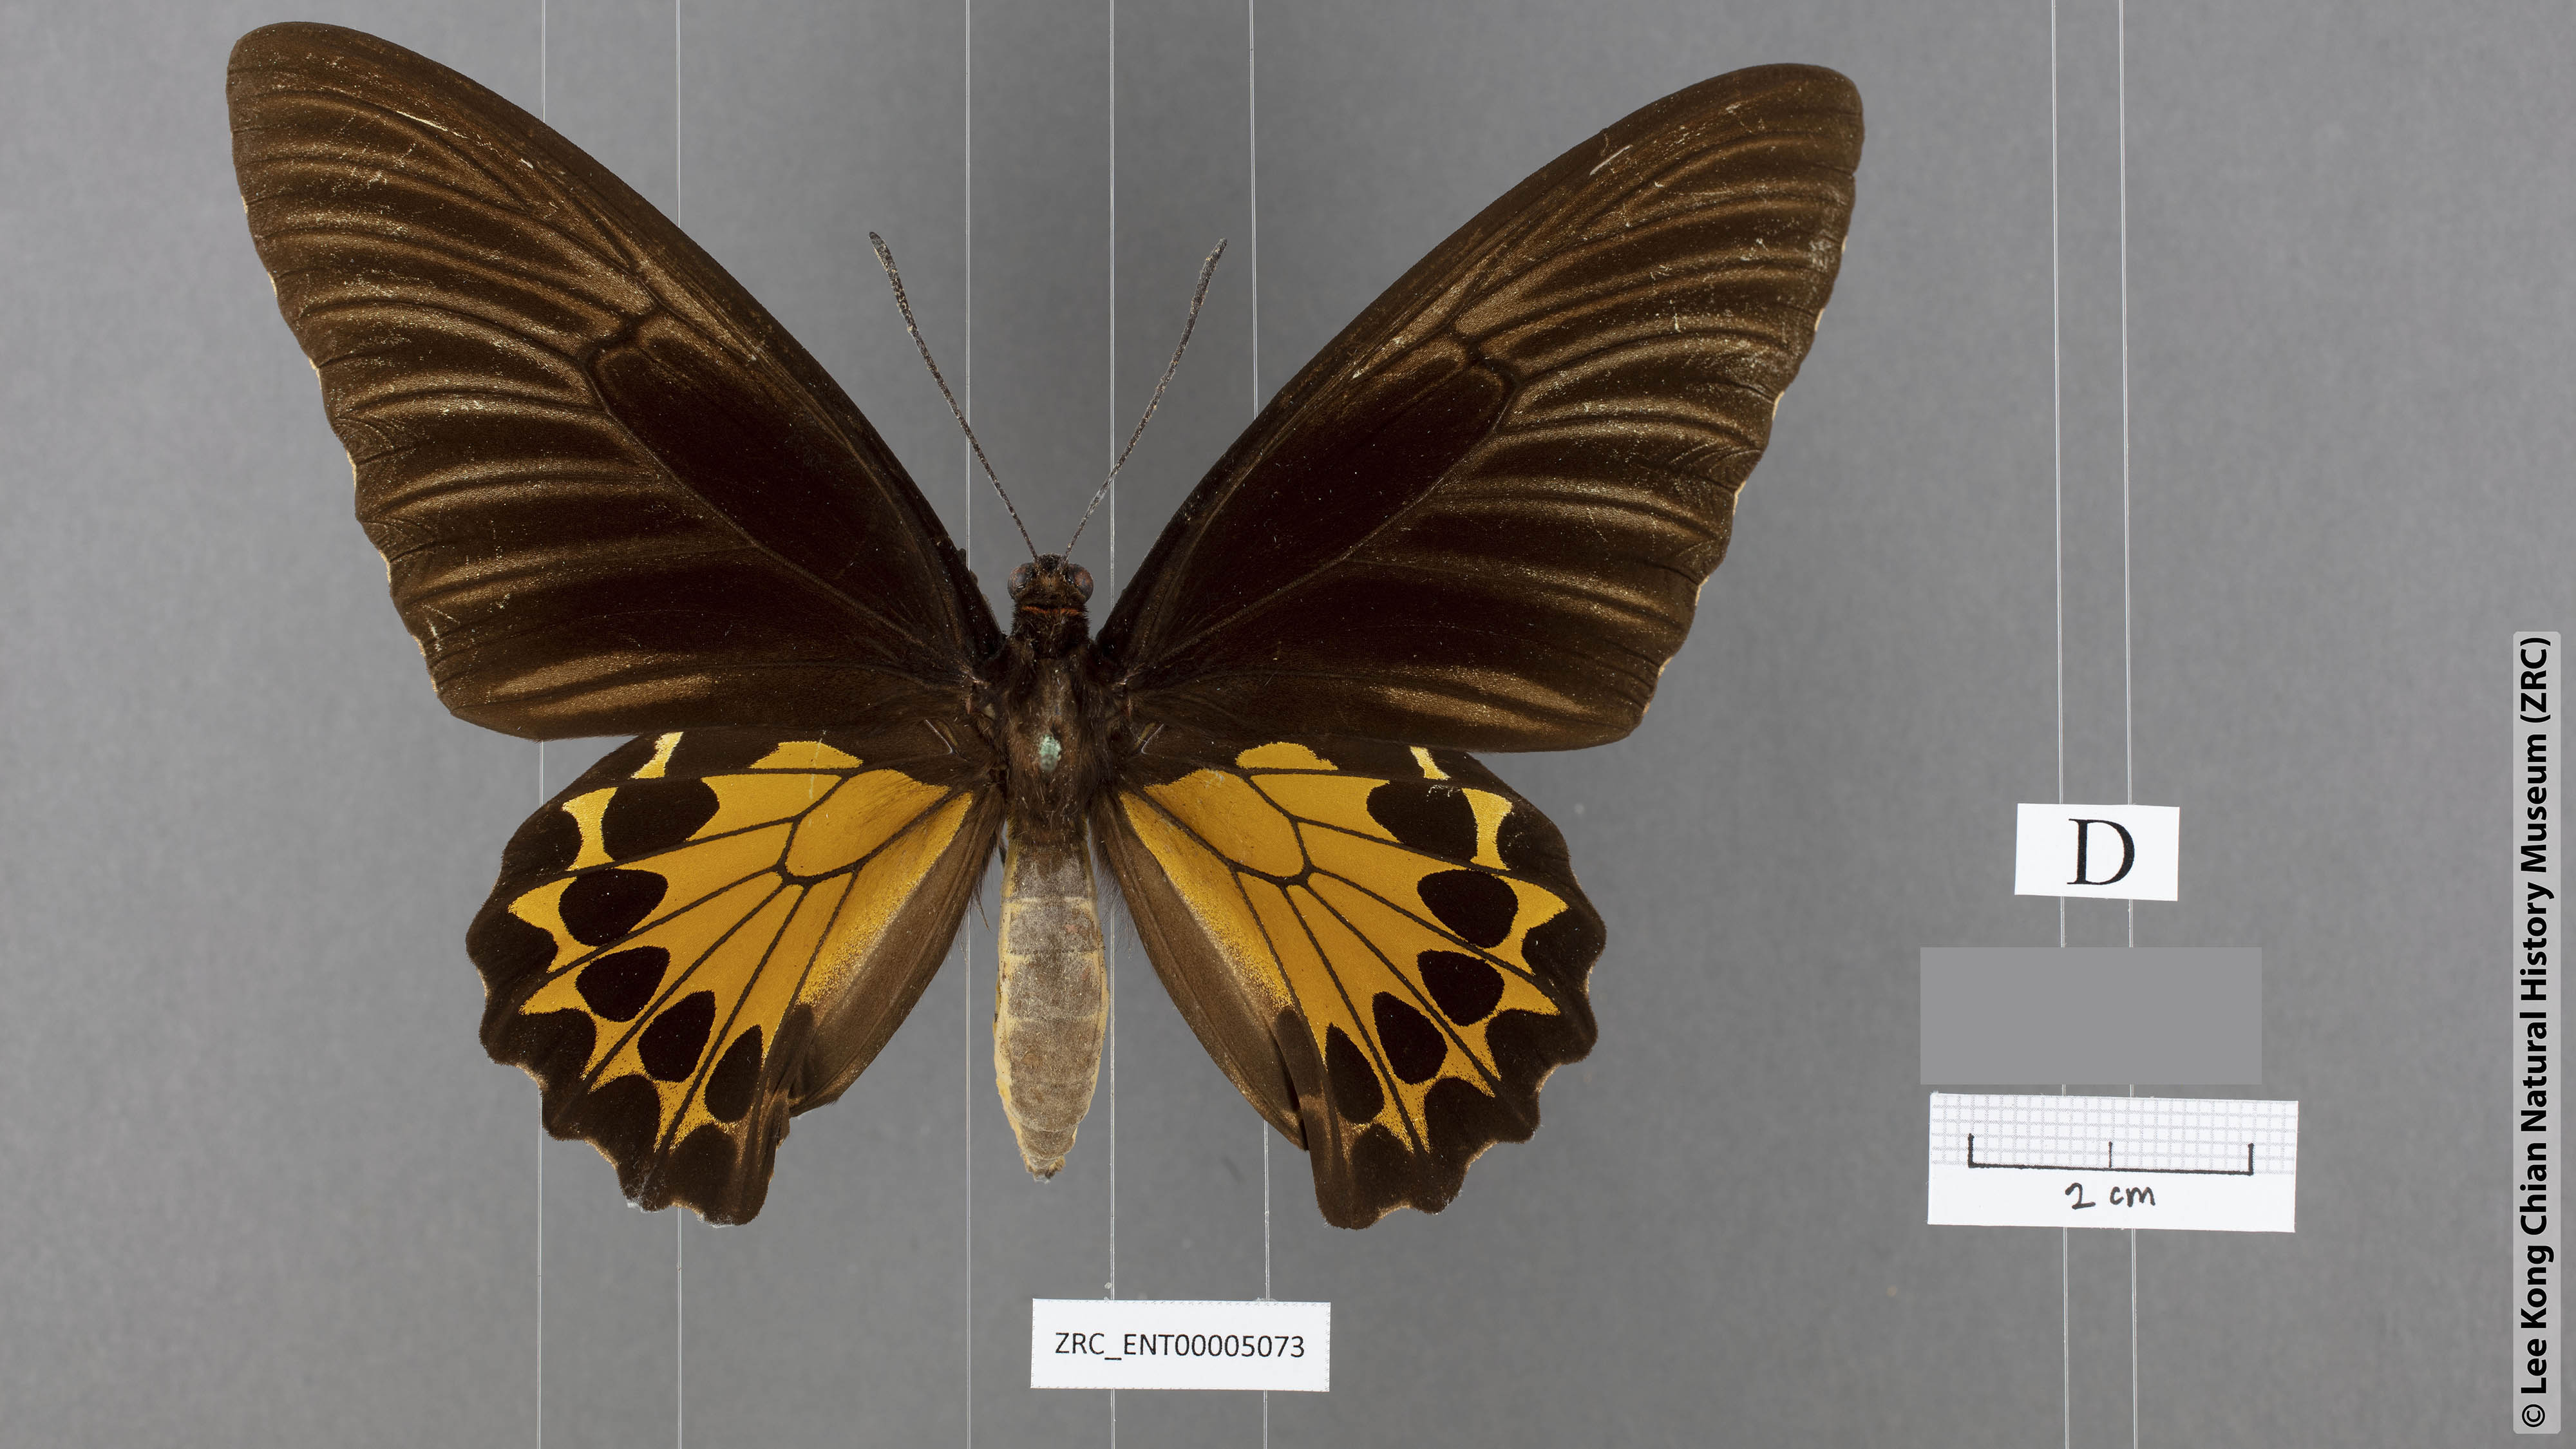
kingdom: Animalia
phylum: Arthropoda
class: Insecta
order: Lepidoptera
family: Papilionidae
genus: Troides
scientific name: Troides helena
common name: Common birdwing
